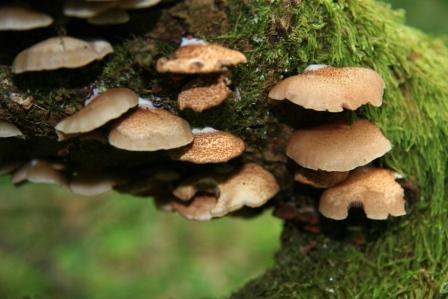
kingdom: Fungi
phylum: Basidiomycota
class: Agaricomycetes
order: Agaricales
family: Crepidotaceae
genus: Crepidotus
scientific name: Crepidotus calolepis
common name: småskællet muslingesvamp
